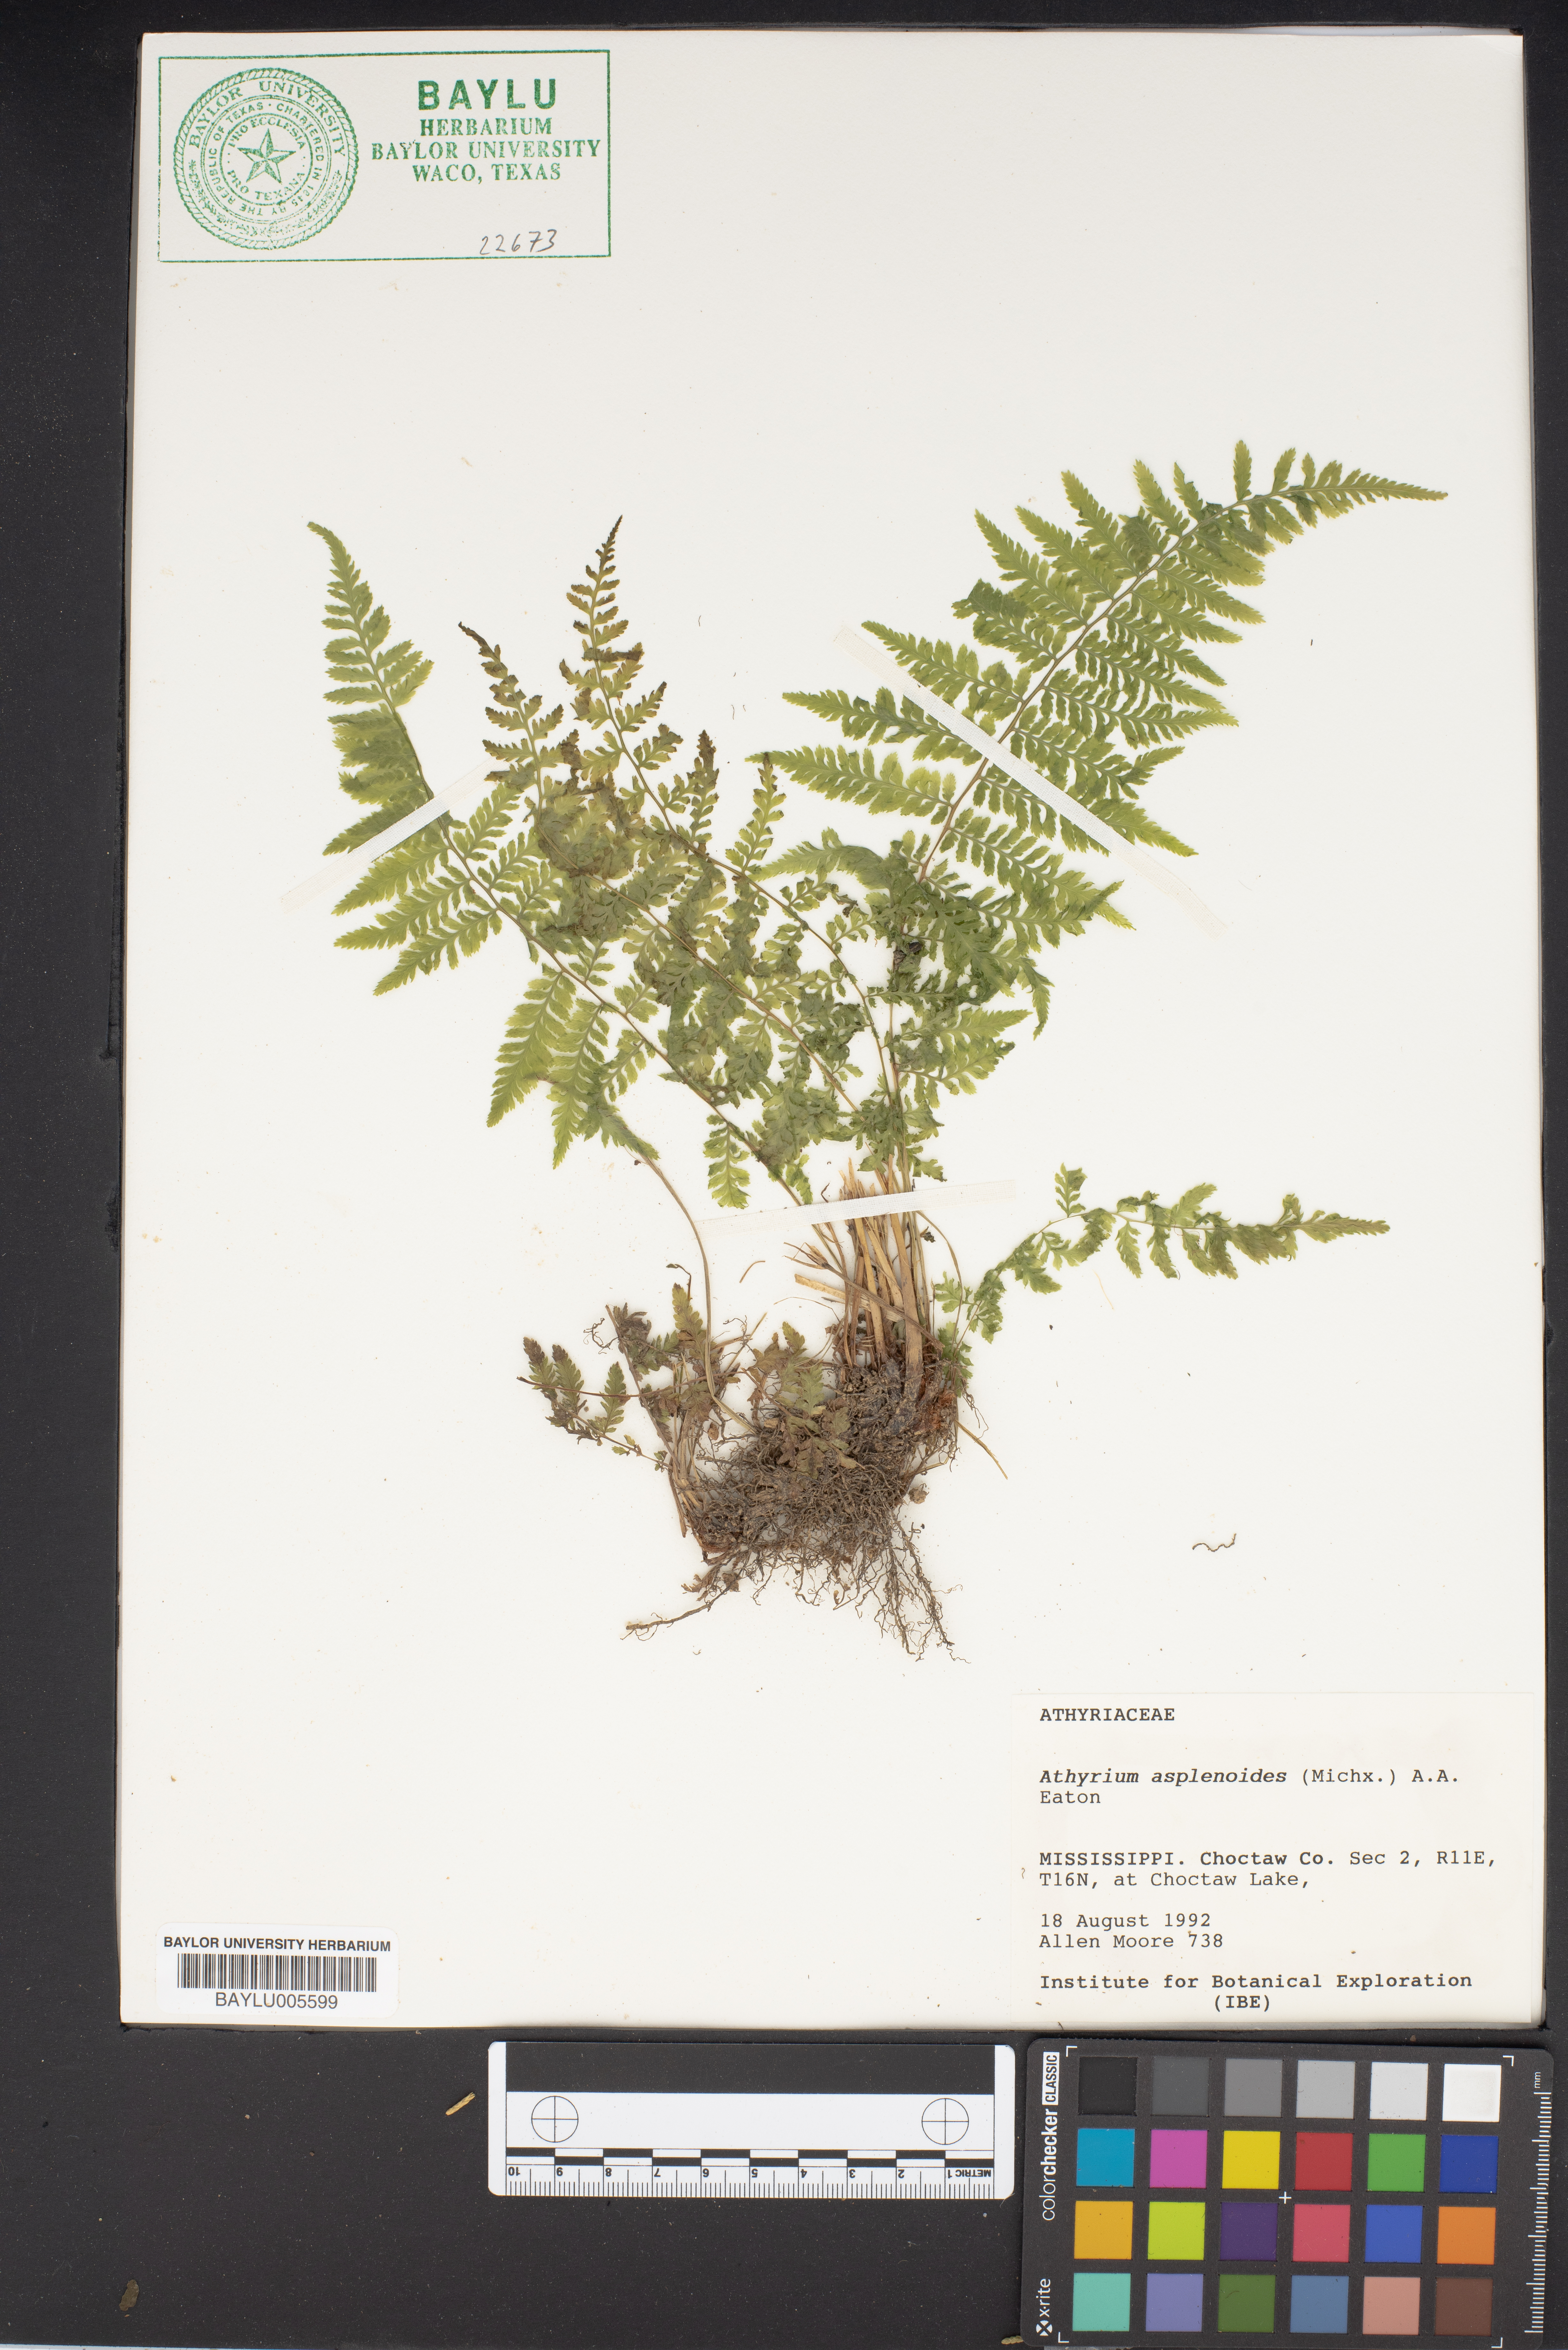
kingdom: Plantae
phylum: Tracheophyta
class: Polypodiopsida
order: Polypodiales
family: Athyriaceae
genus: Athyrium
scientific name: Athyrium newtonii
